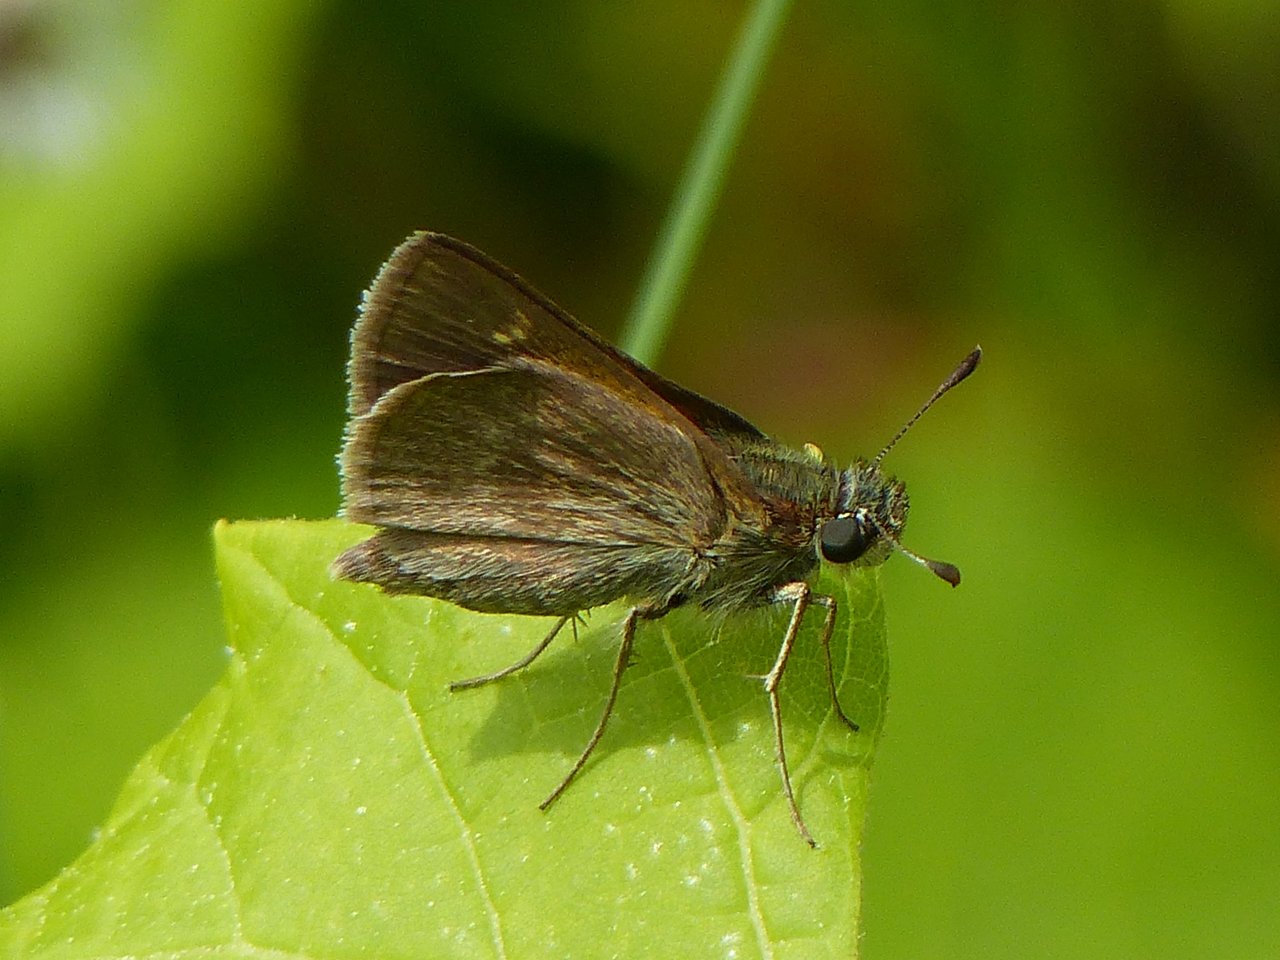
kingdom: Animalia
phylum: Arthropoda
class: Insecta
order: Lepidoptera
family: Hesperiidae
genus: Polites
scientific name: Polites themistocles
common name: Tawny-edged Skipper
